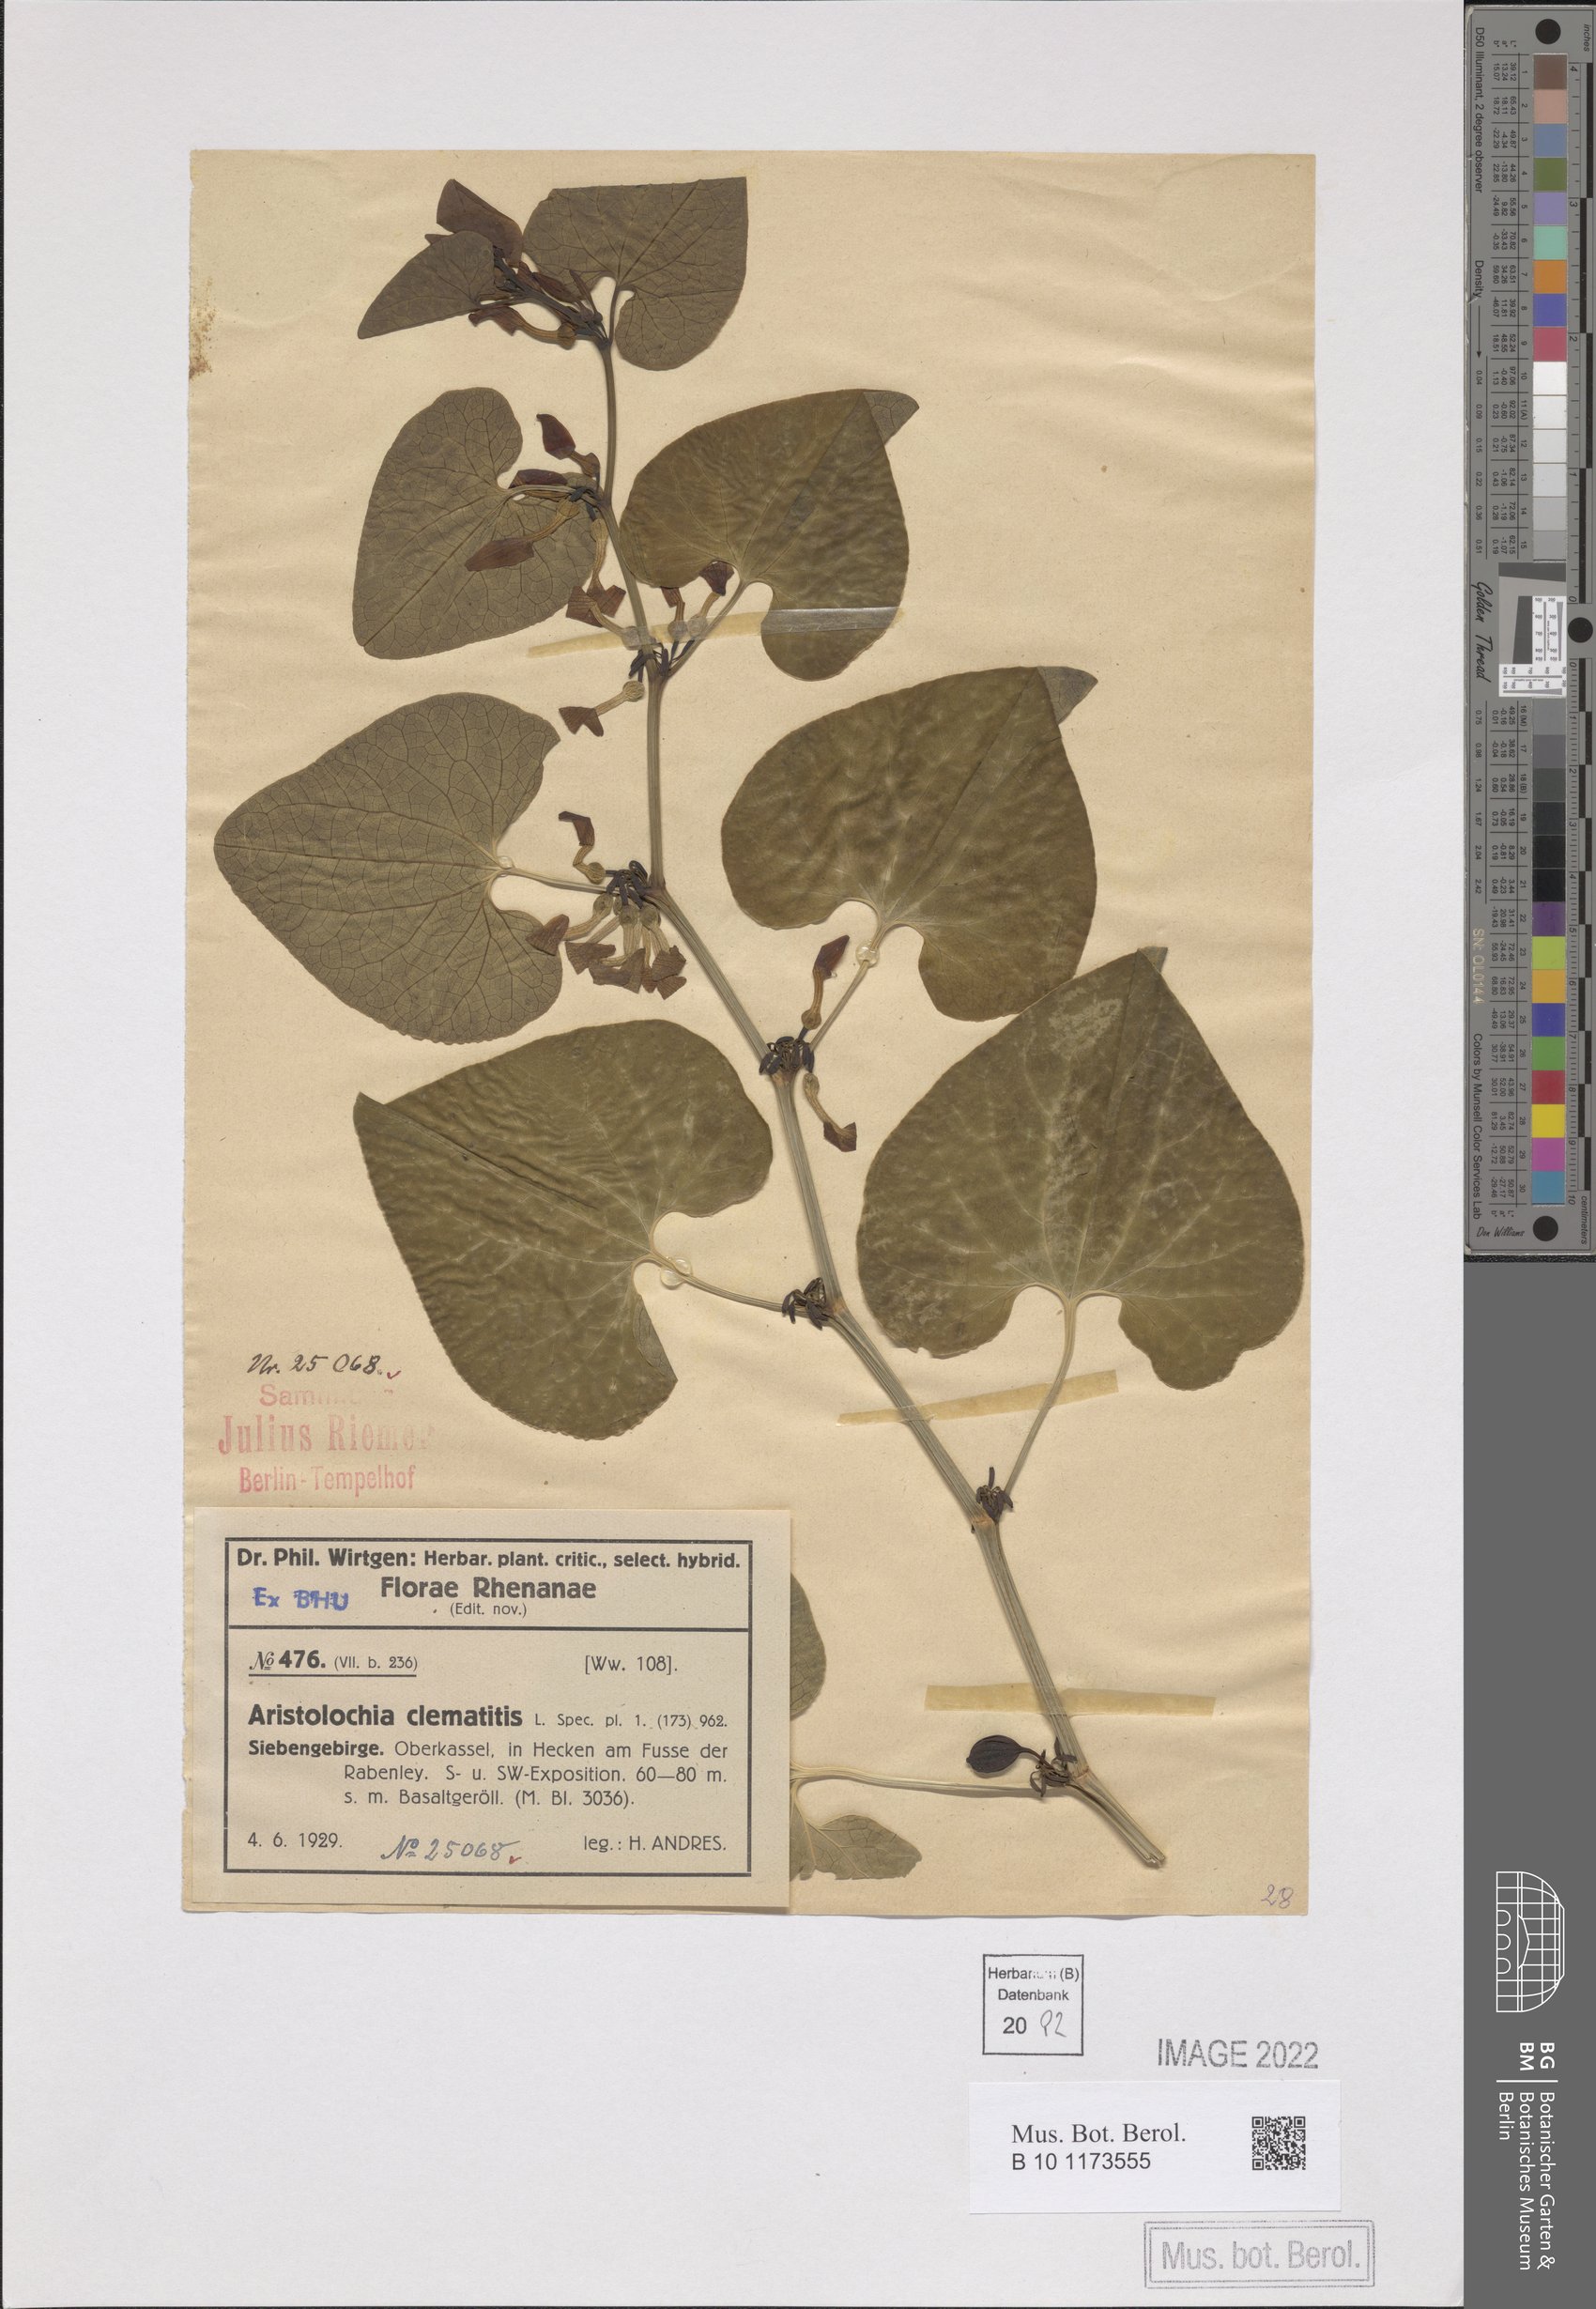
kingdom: Plantae
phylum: Tracheophyta
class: Magnoliopsida
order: Piperales
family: Aristolochiaceae
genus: Aristolochia
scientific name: Aristolochia clematitis
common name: Birthwort
